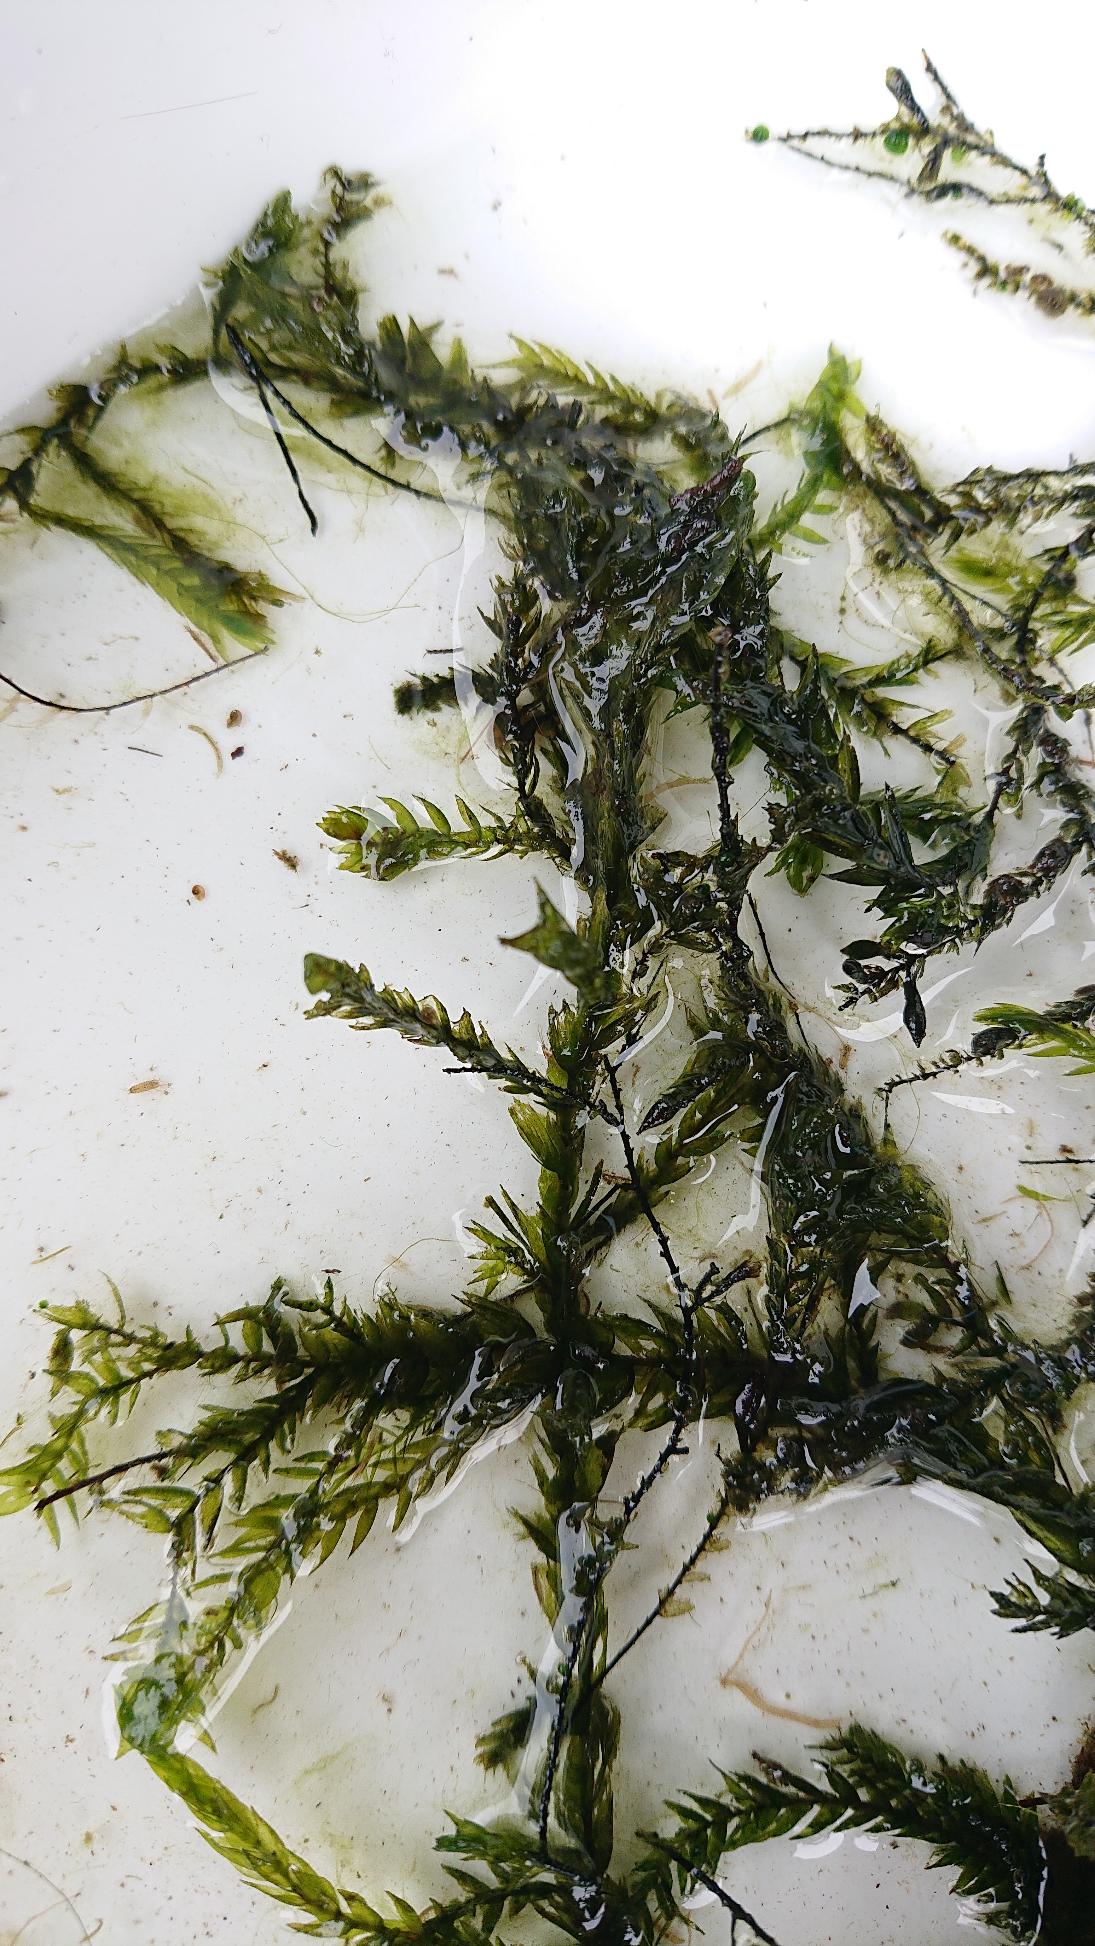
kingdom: Plantae
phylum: Bryophyta
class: Bryopsida
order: Hypnales
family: Fontinalaceae
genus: Fontinalis
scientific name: Fontinalis antipyretica
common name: Stor kildemos
